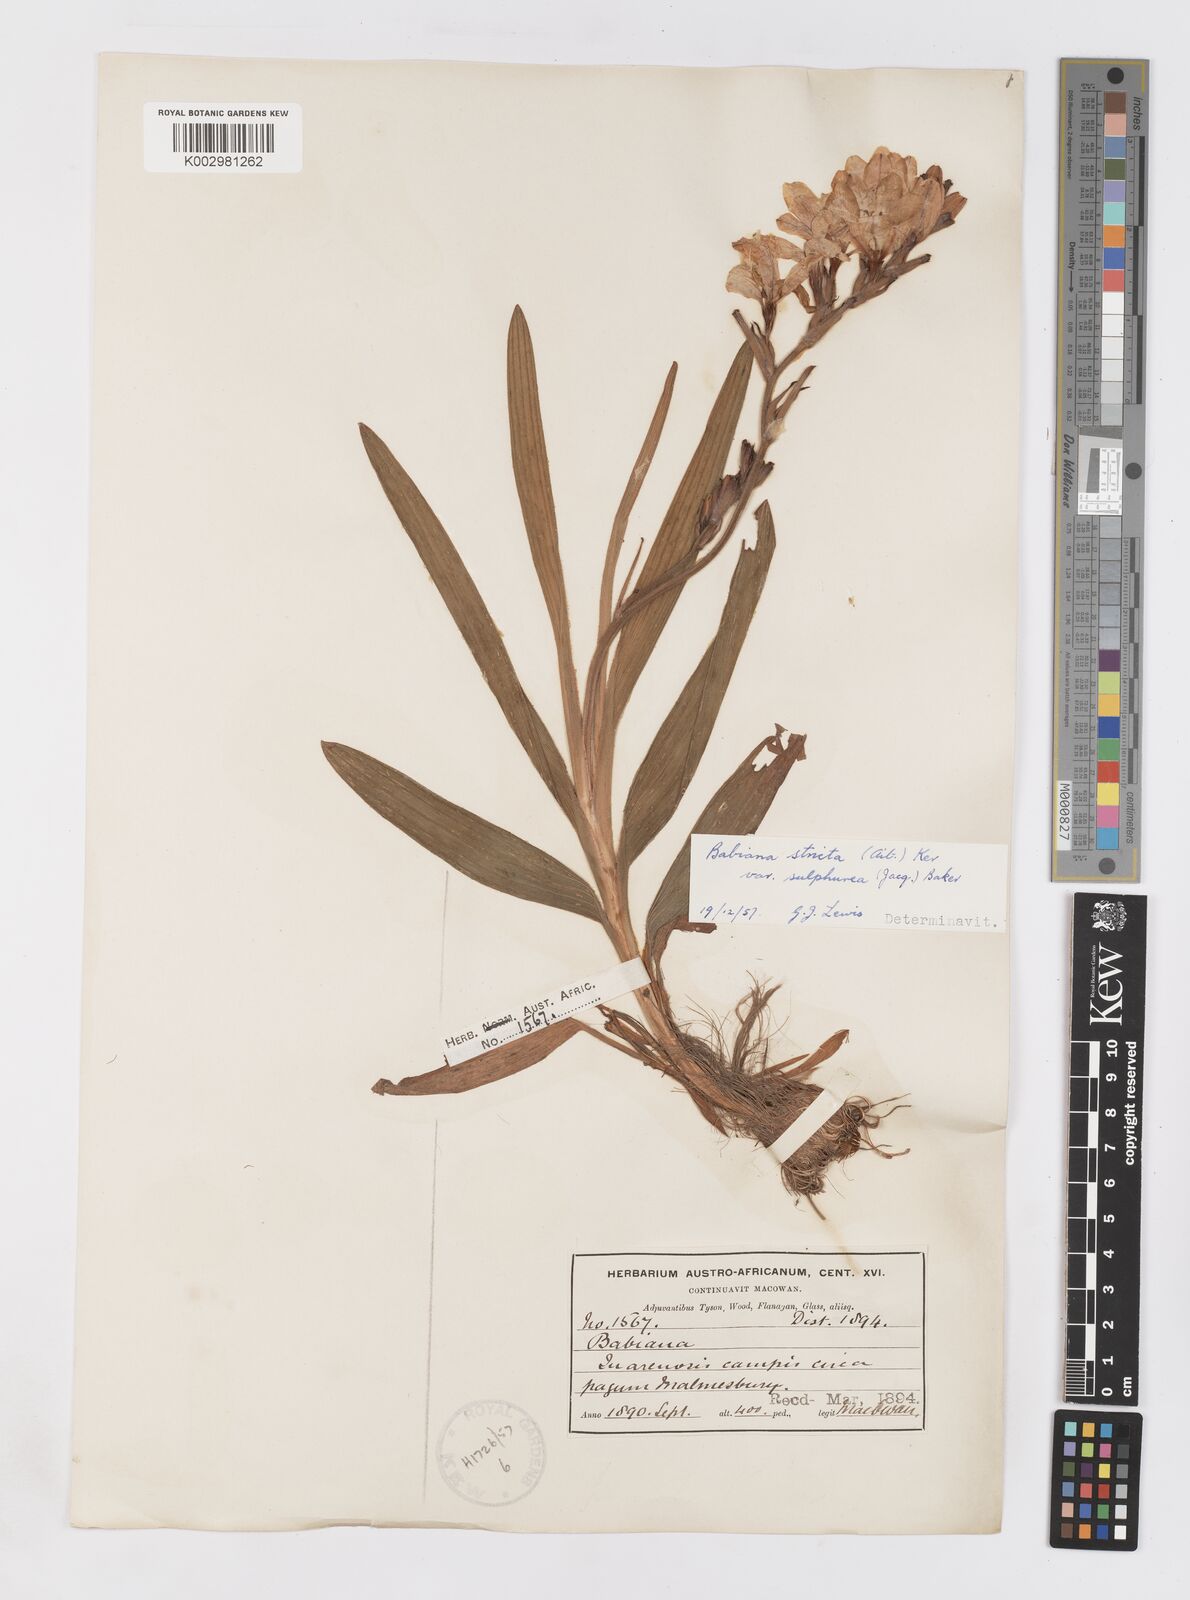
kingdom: Plantae
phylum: Tracheophyta
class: Liliopsida
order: Asparagales
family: Iridaceae
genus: Babiana
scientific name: Babiana regia
